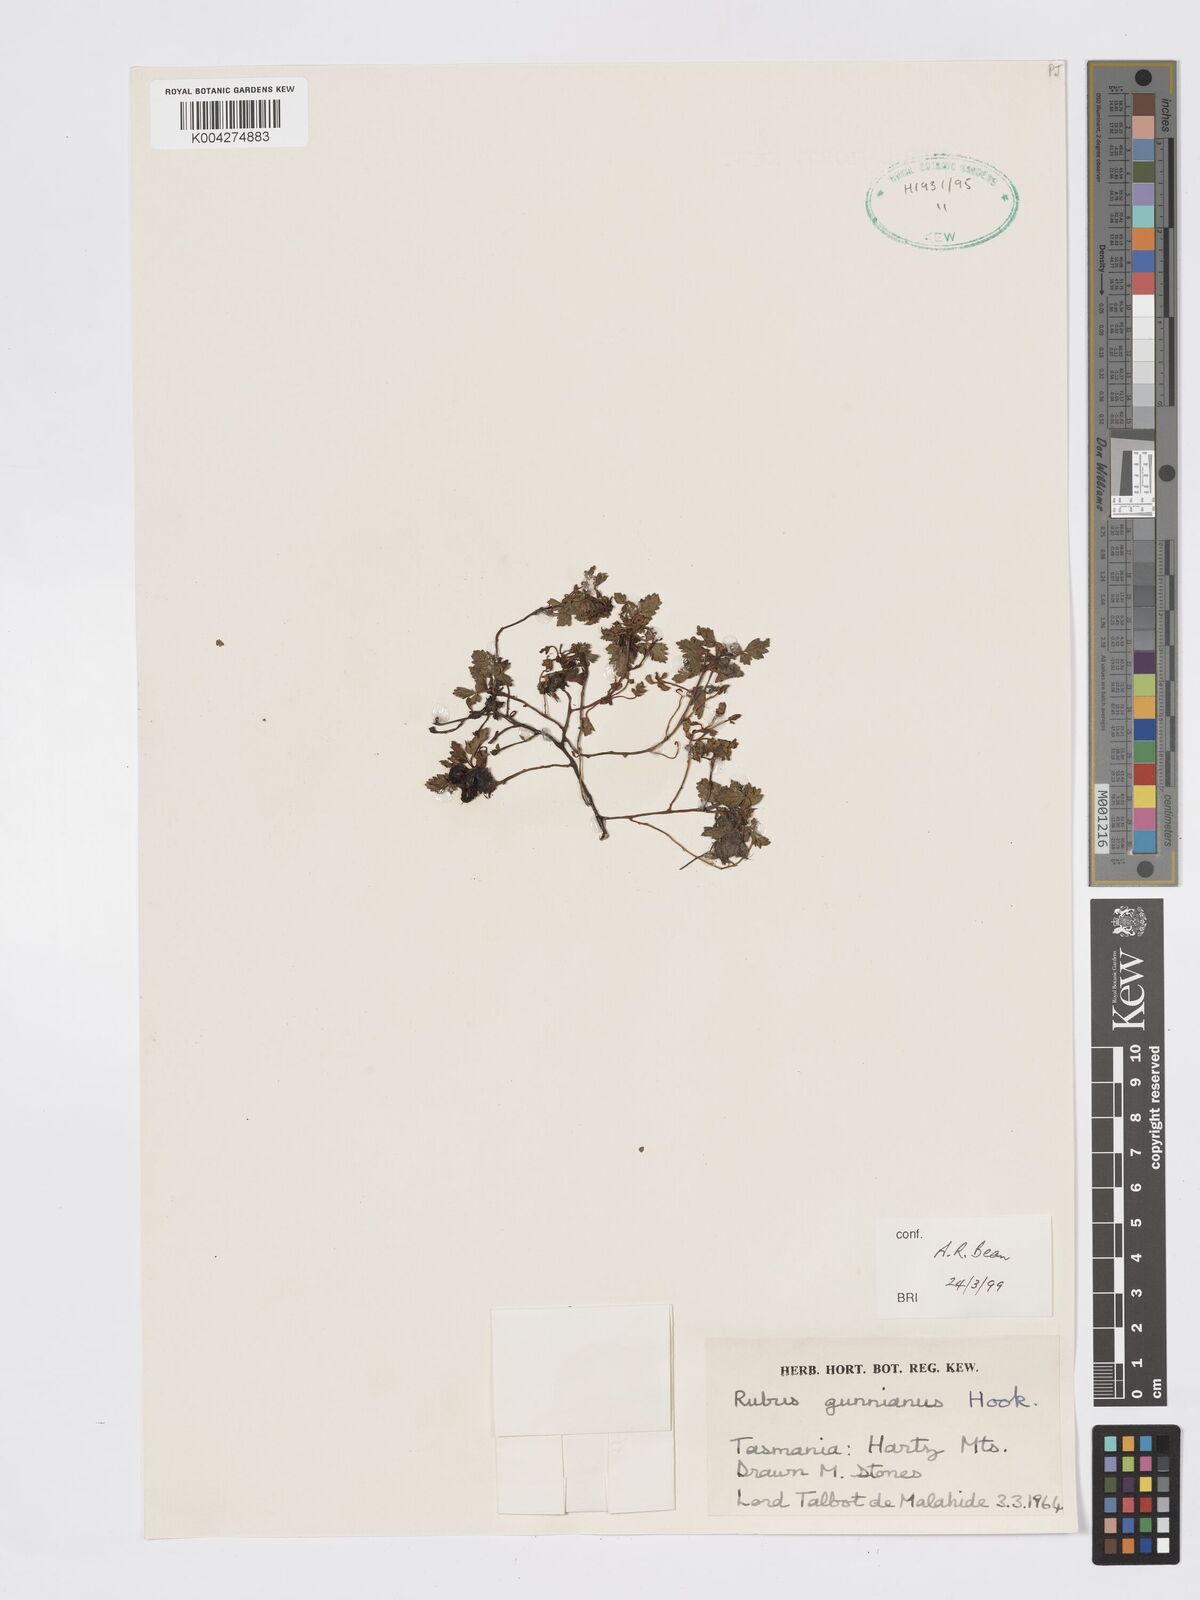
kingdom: Plantae
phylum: Tracheophyta
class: Magnoliopsida
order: Rosales
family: Rosaceae
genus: Rubus
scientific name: Rubus gunnianus
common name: Mountain raspberry
